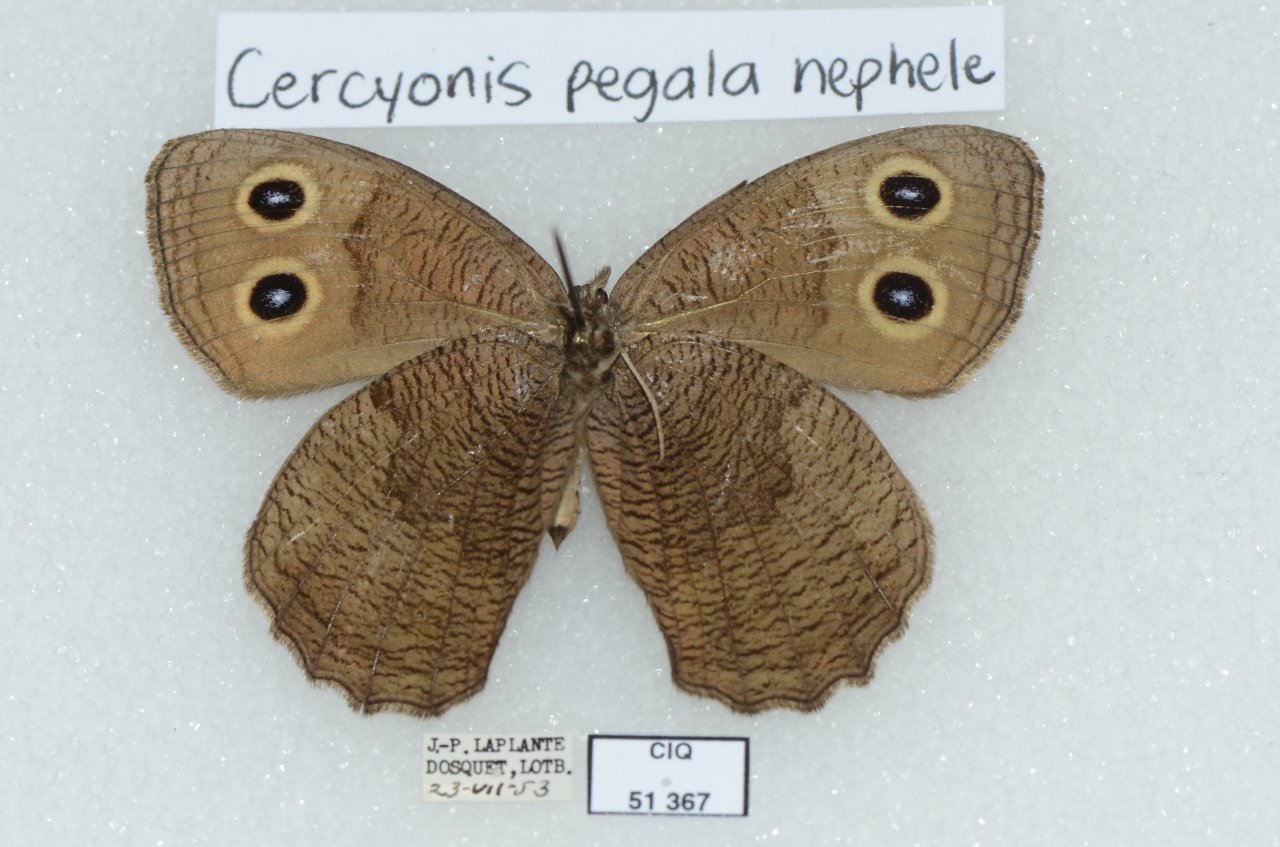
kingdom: Animalia
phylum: Arthropoda
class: Insecta
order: Lepidoptera
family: Nymphalidae
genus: Cercyonis
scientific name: Cercyonis pegala
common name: Common Wood-Nymph
